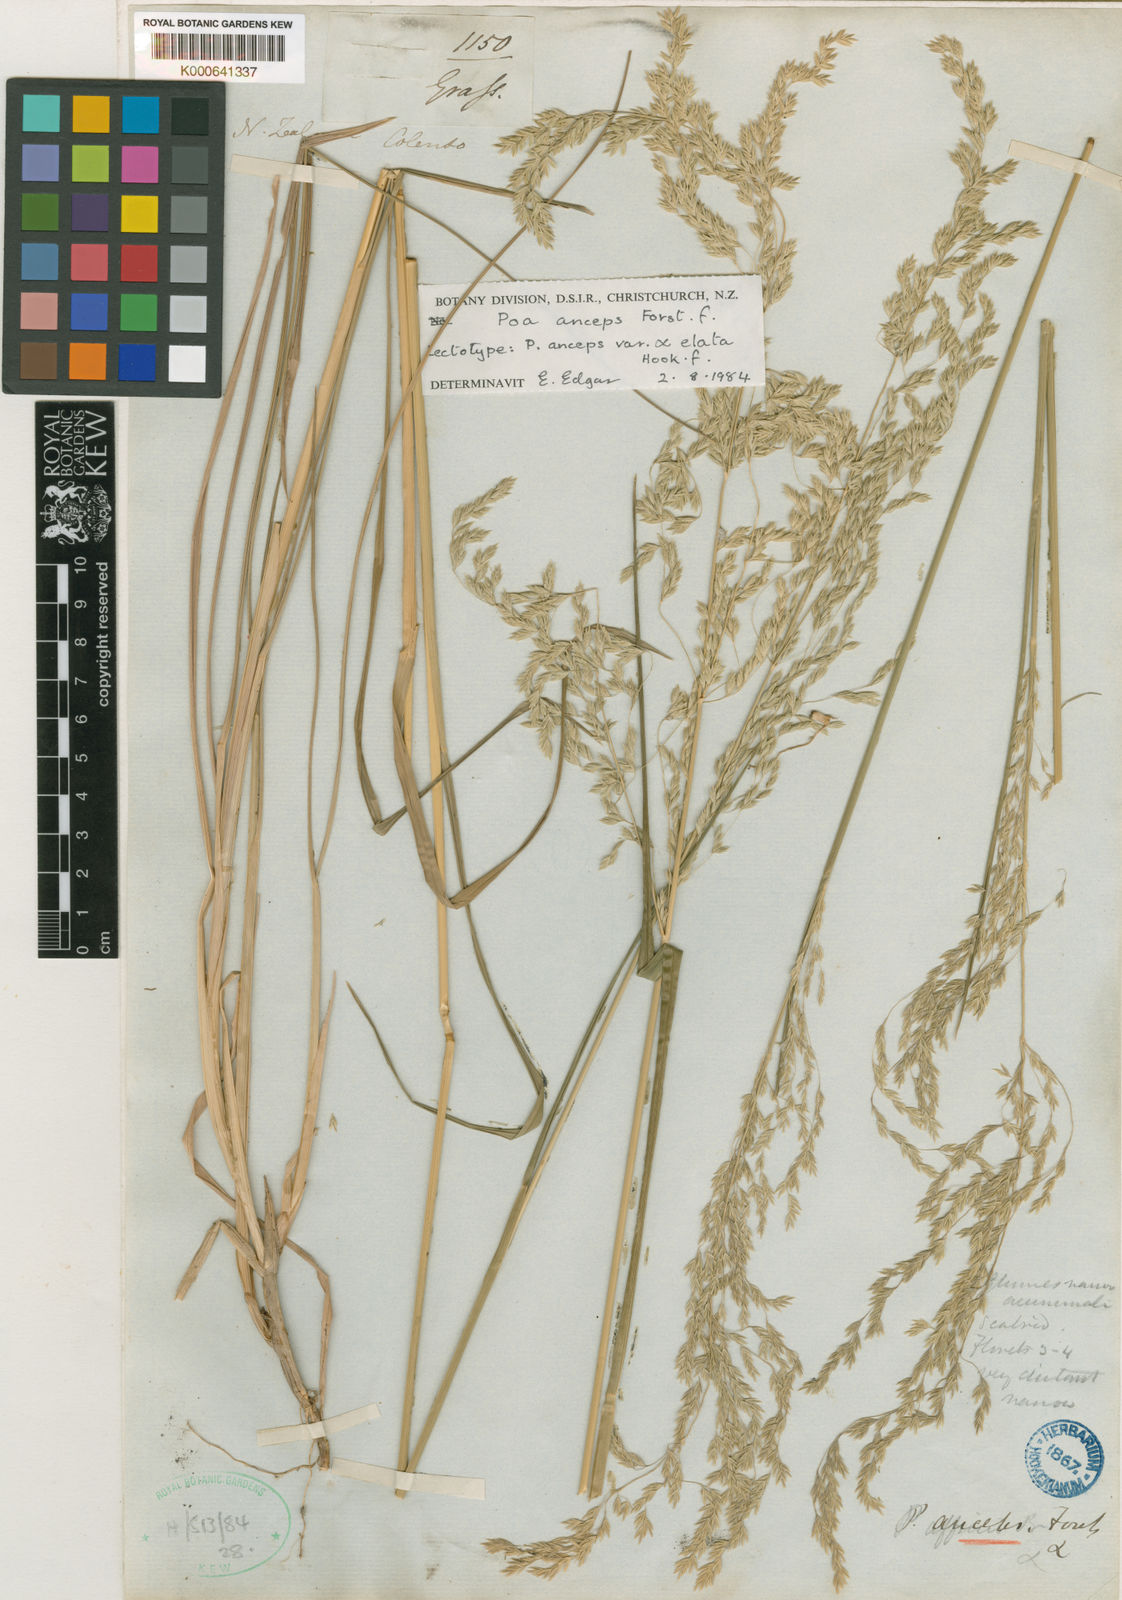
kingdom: Plantae
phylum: Tracheophyta
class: Liliopsida
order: Poales
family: Poaceae
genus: Poa
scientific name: Poa anceps
